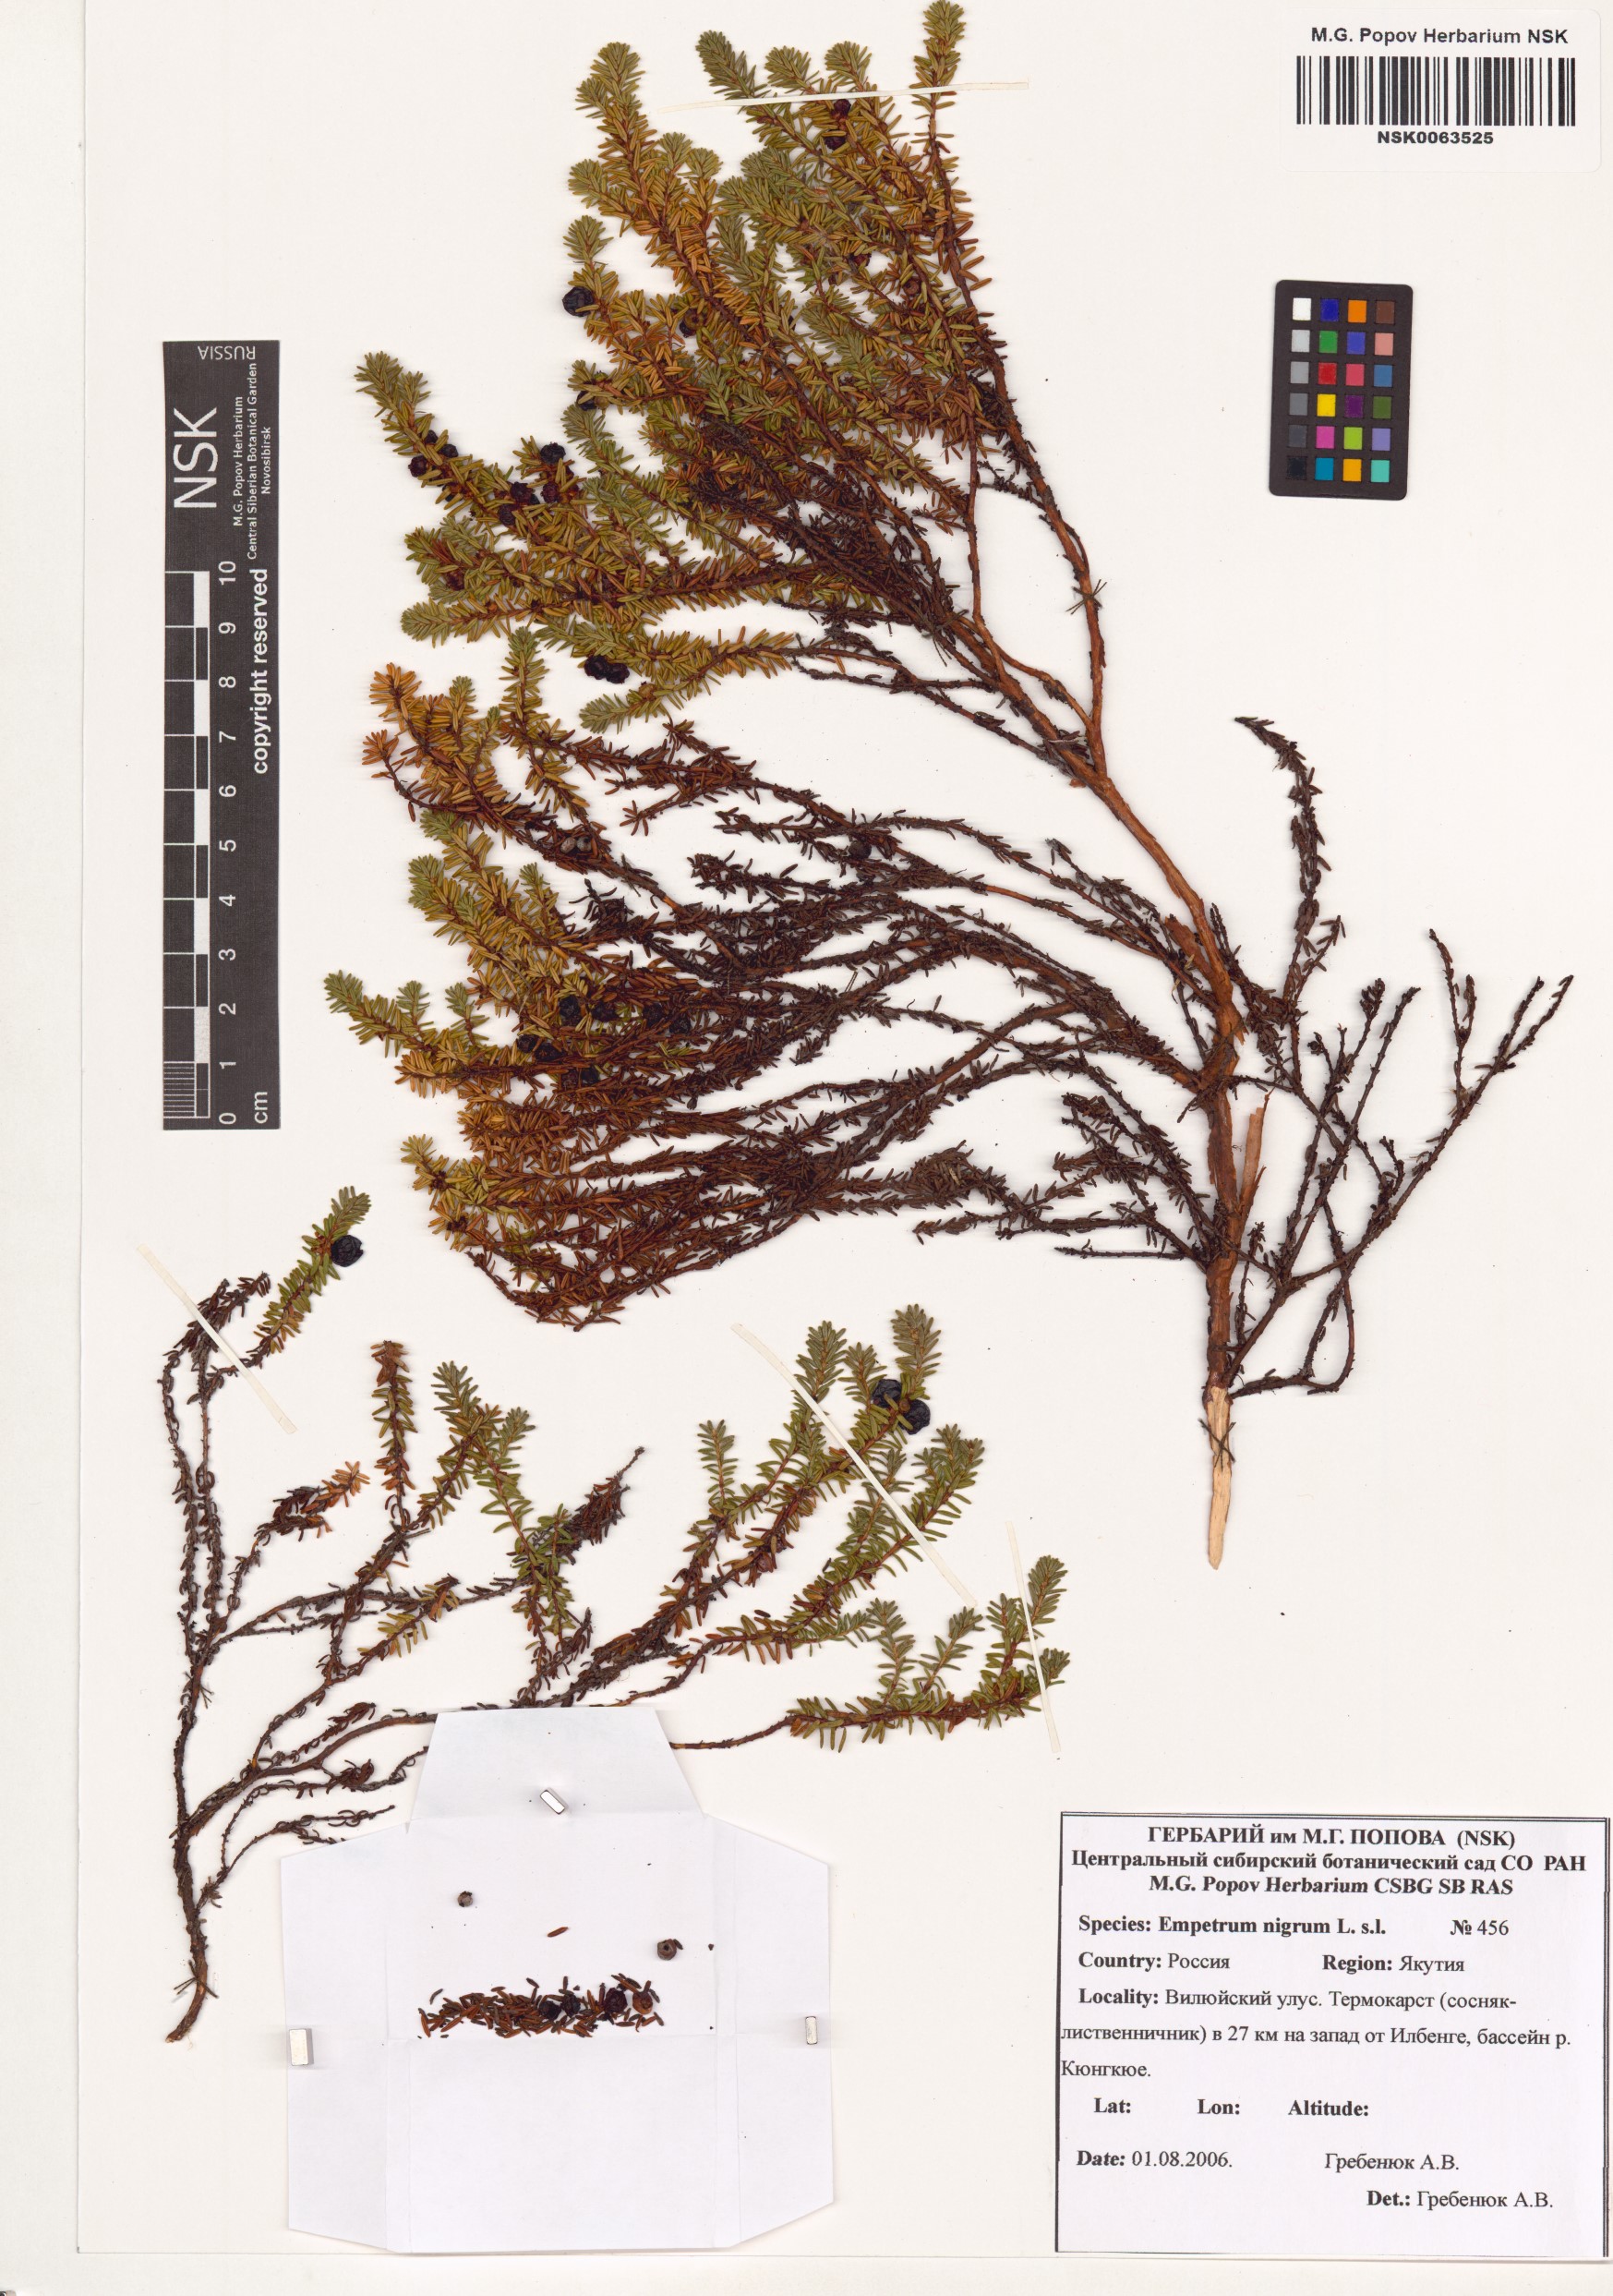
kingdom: Plantae
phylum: Tracheophyta
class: Magnoliopsida
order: Ericales
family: Ericaceae
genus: Empetrum
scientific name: Empetrum nigrum
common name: Black crowberry
